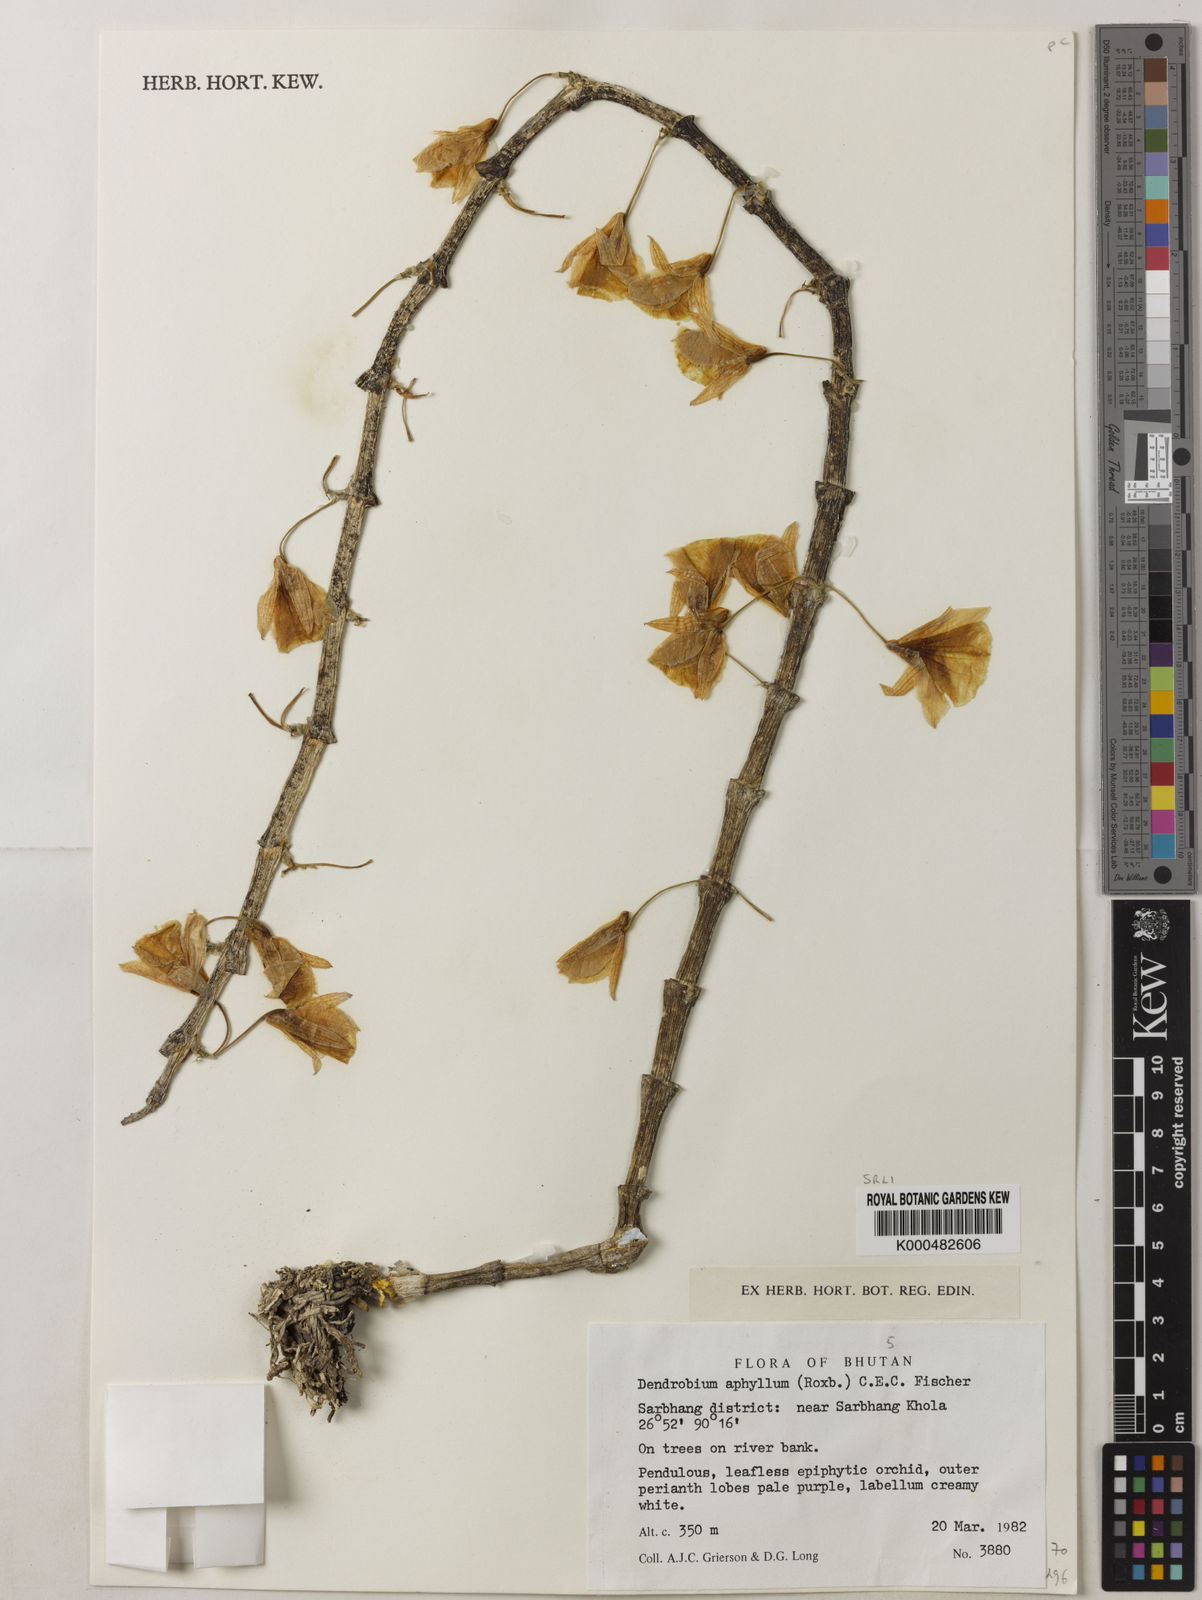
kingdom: Plantae
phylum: Tracheophyta
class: Liliopsida
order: Asparagales
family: Orchidaceae
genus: Dendrobium
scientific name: Dendrobium macrostachyum
